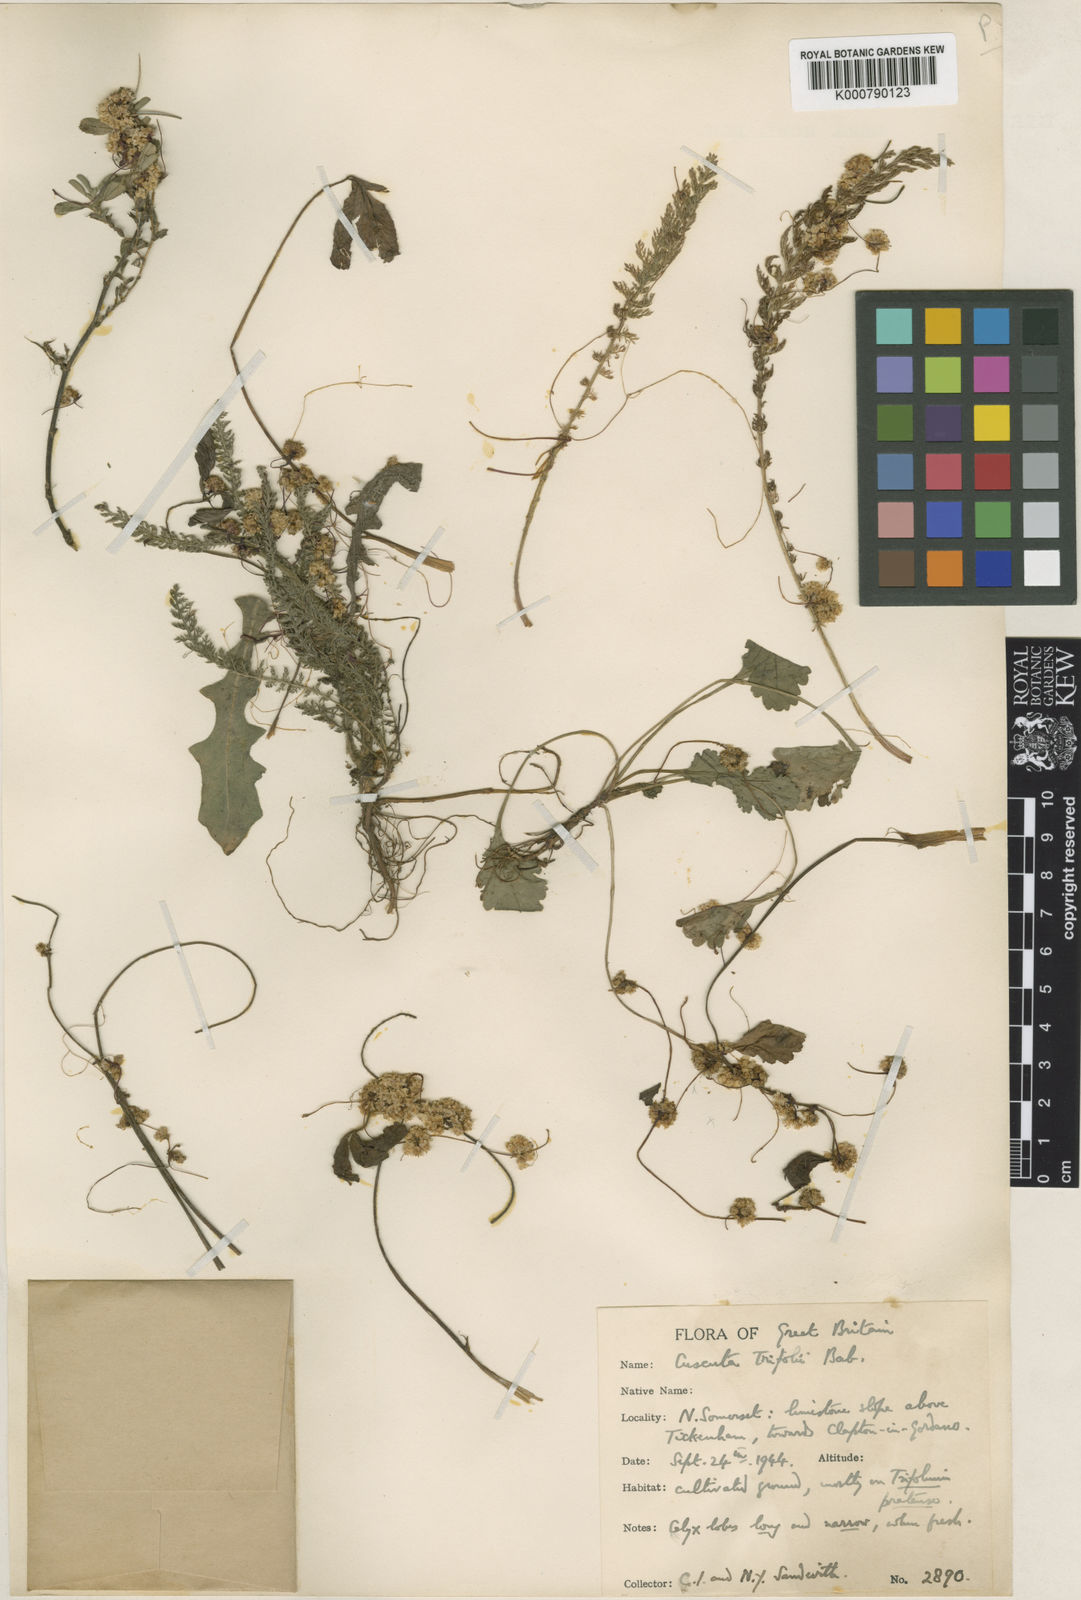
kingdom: Plantae
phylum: Tracheophyta
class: Magnoliopsida
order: Solanales
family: Convolvulaceae
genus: Cuscuta
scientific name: Cuscuta epithymum
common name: Clover dodder
